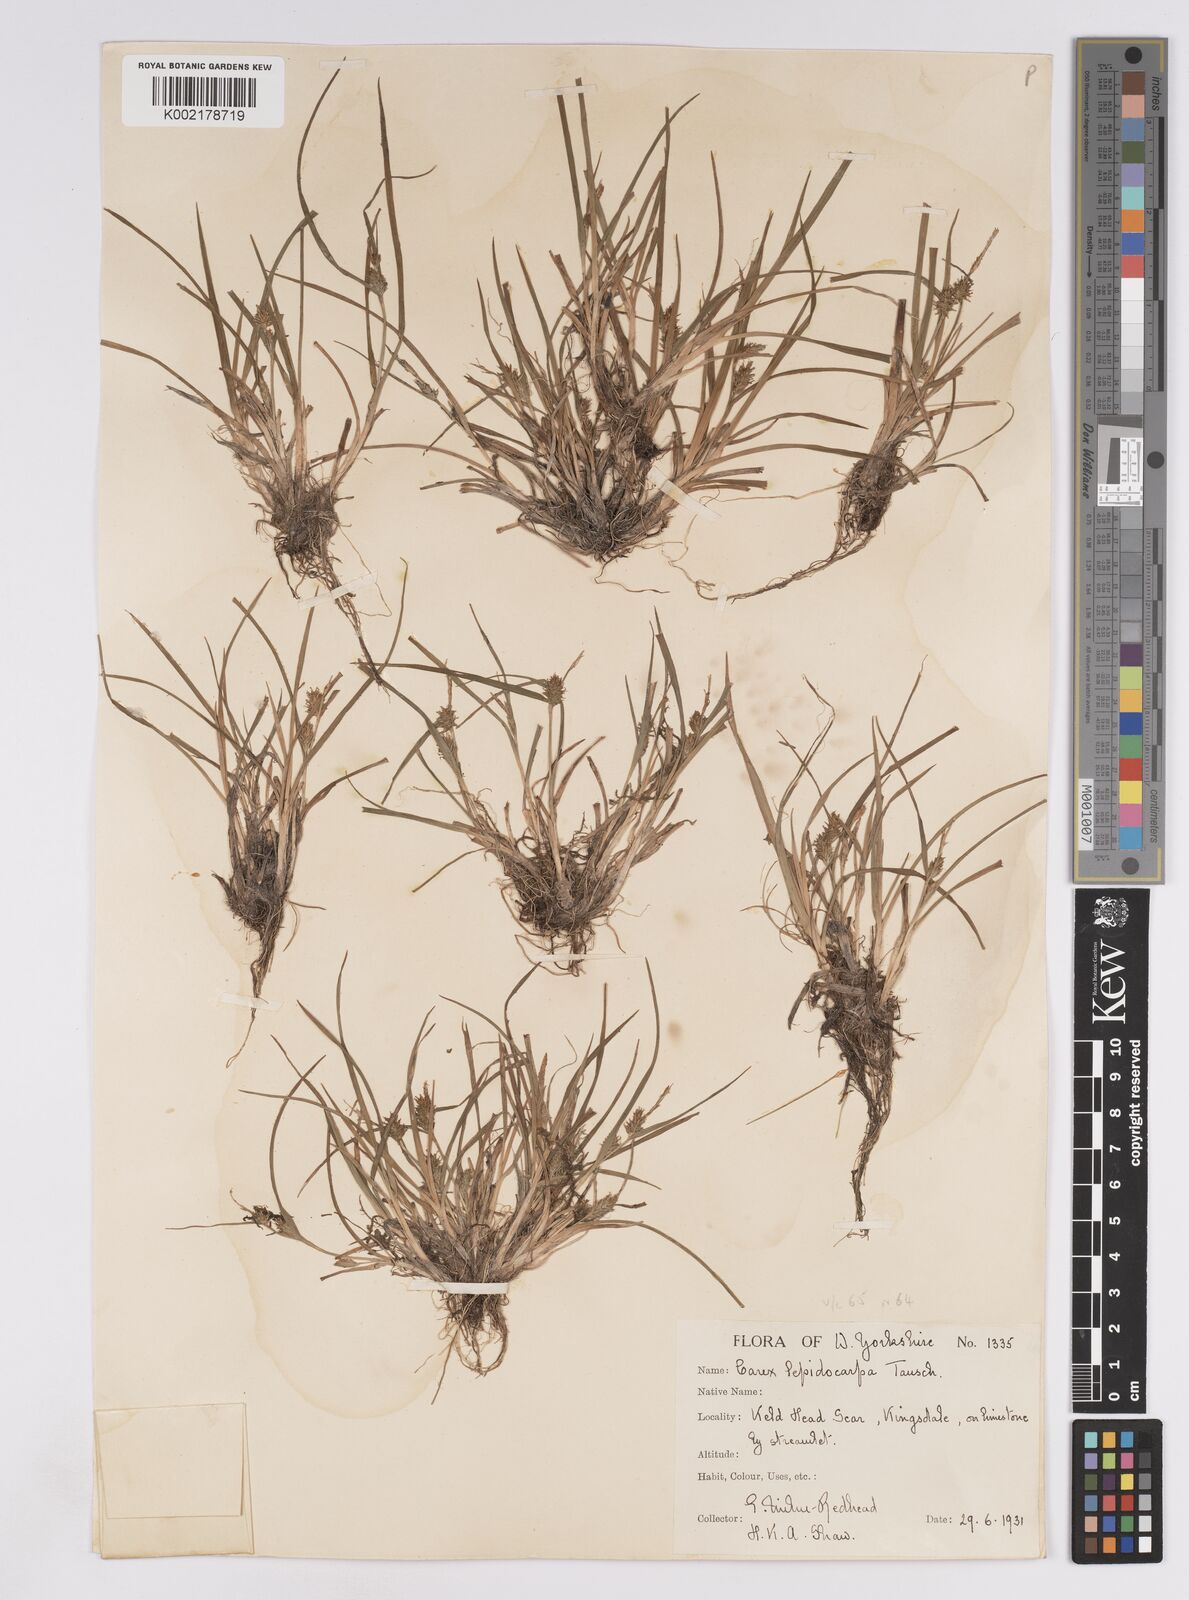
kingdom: Plantae
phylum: Tracheophyta
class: Liliopsida
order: Poales
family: Cyperaceae
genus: Carex
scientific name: Carex lepidocarpa
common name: Long-stalked yellow-sedge
